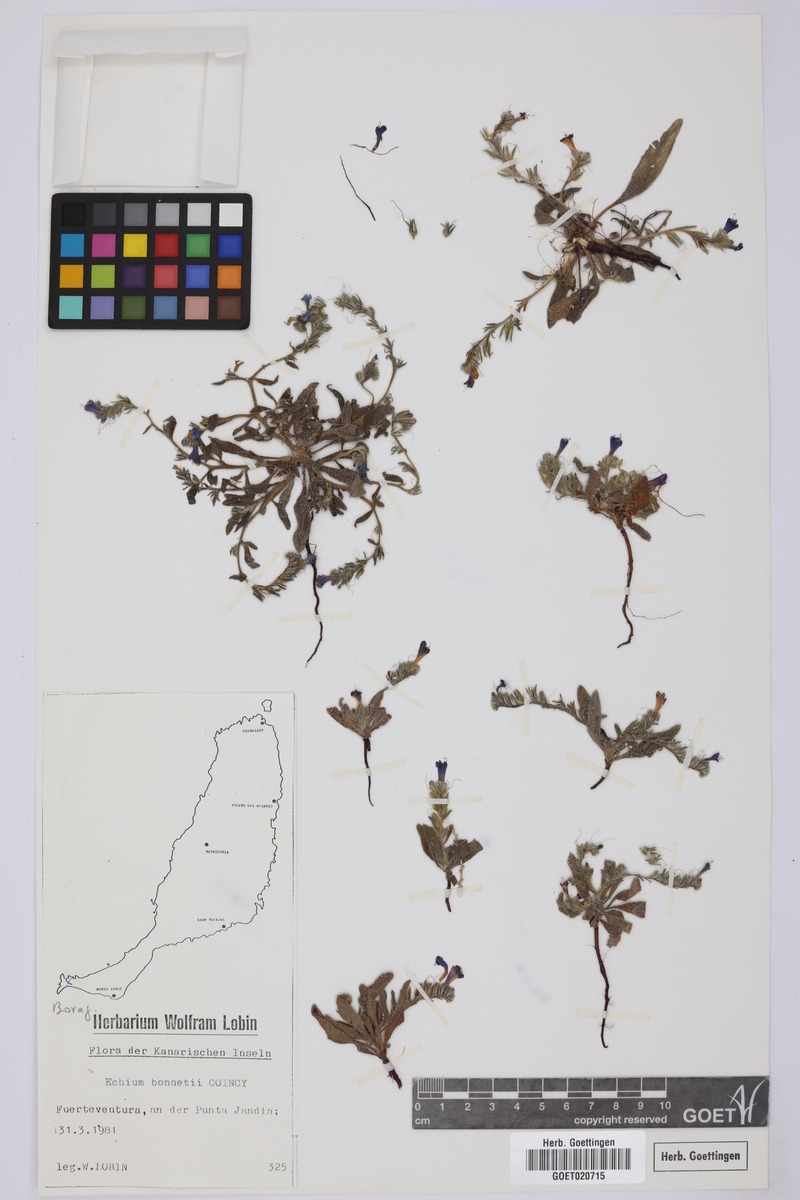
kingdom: Plantae
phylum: Tracheophyta
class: Magnoliopsida
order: Boraginales
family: Boraginaceae
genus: Echium
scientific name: Echium bonnetii
